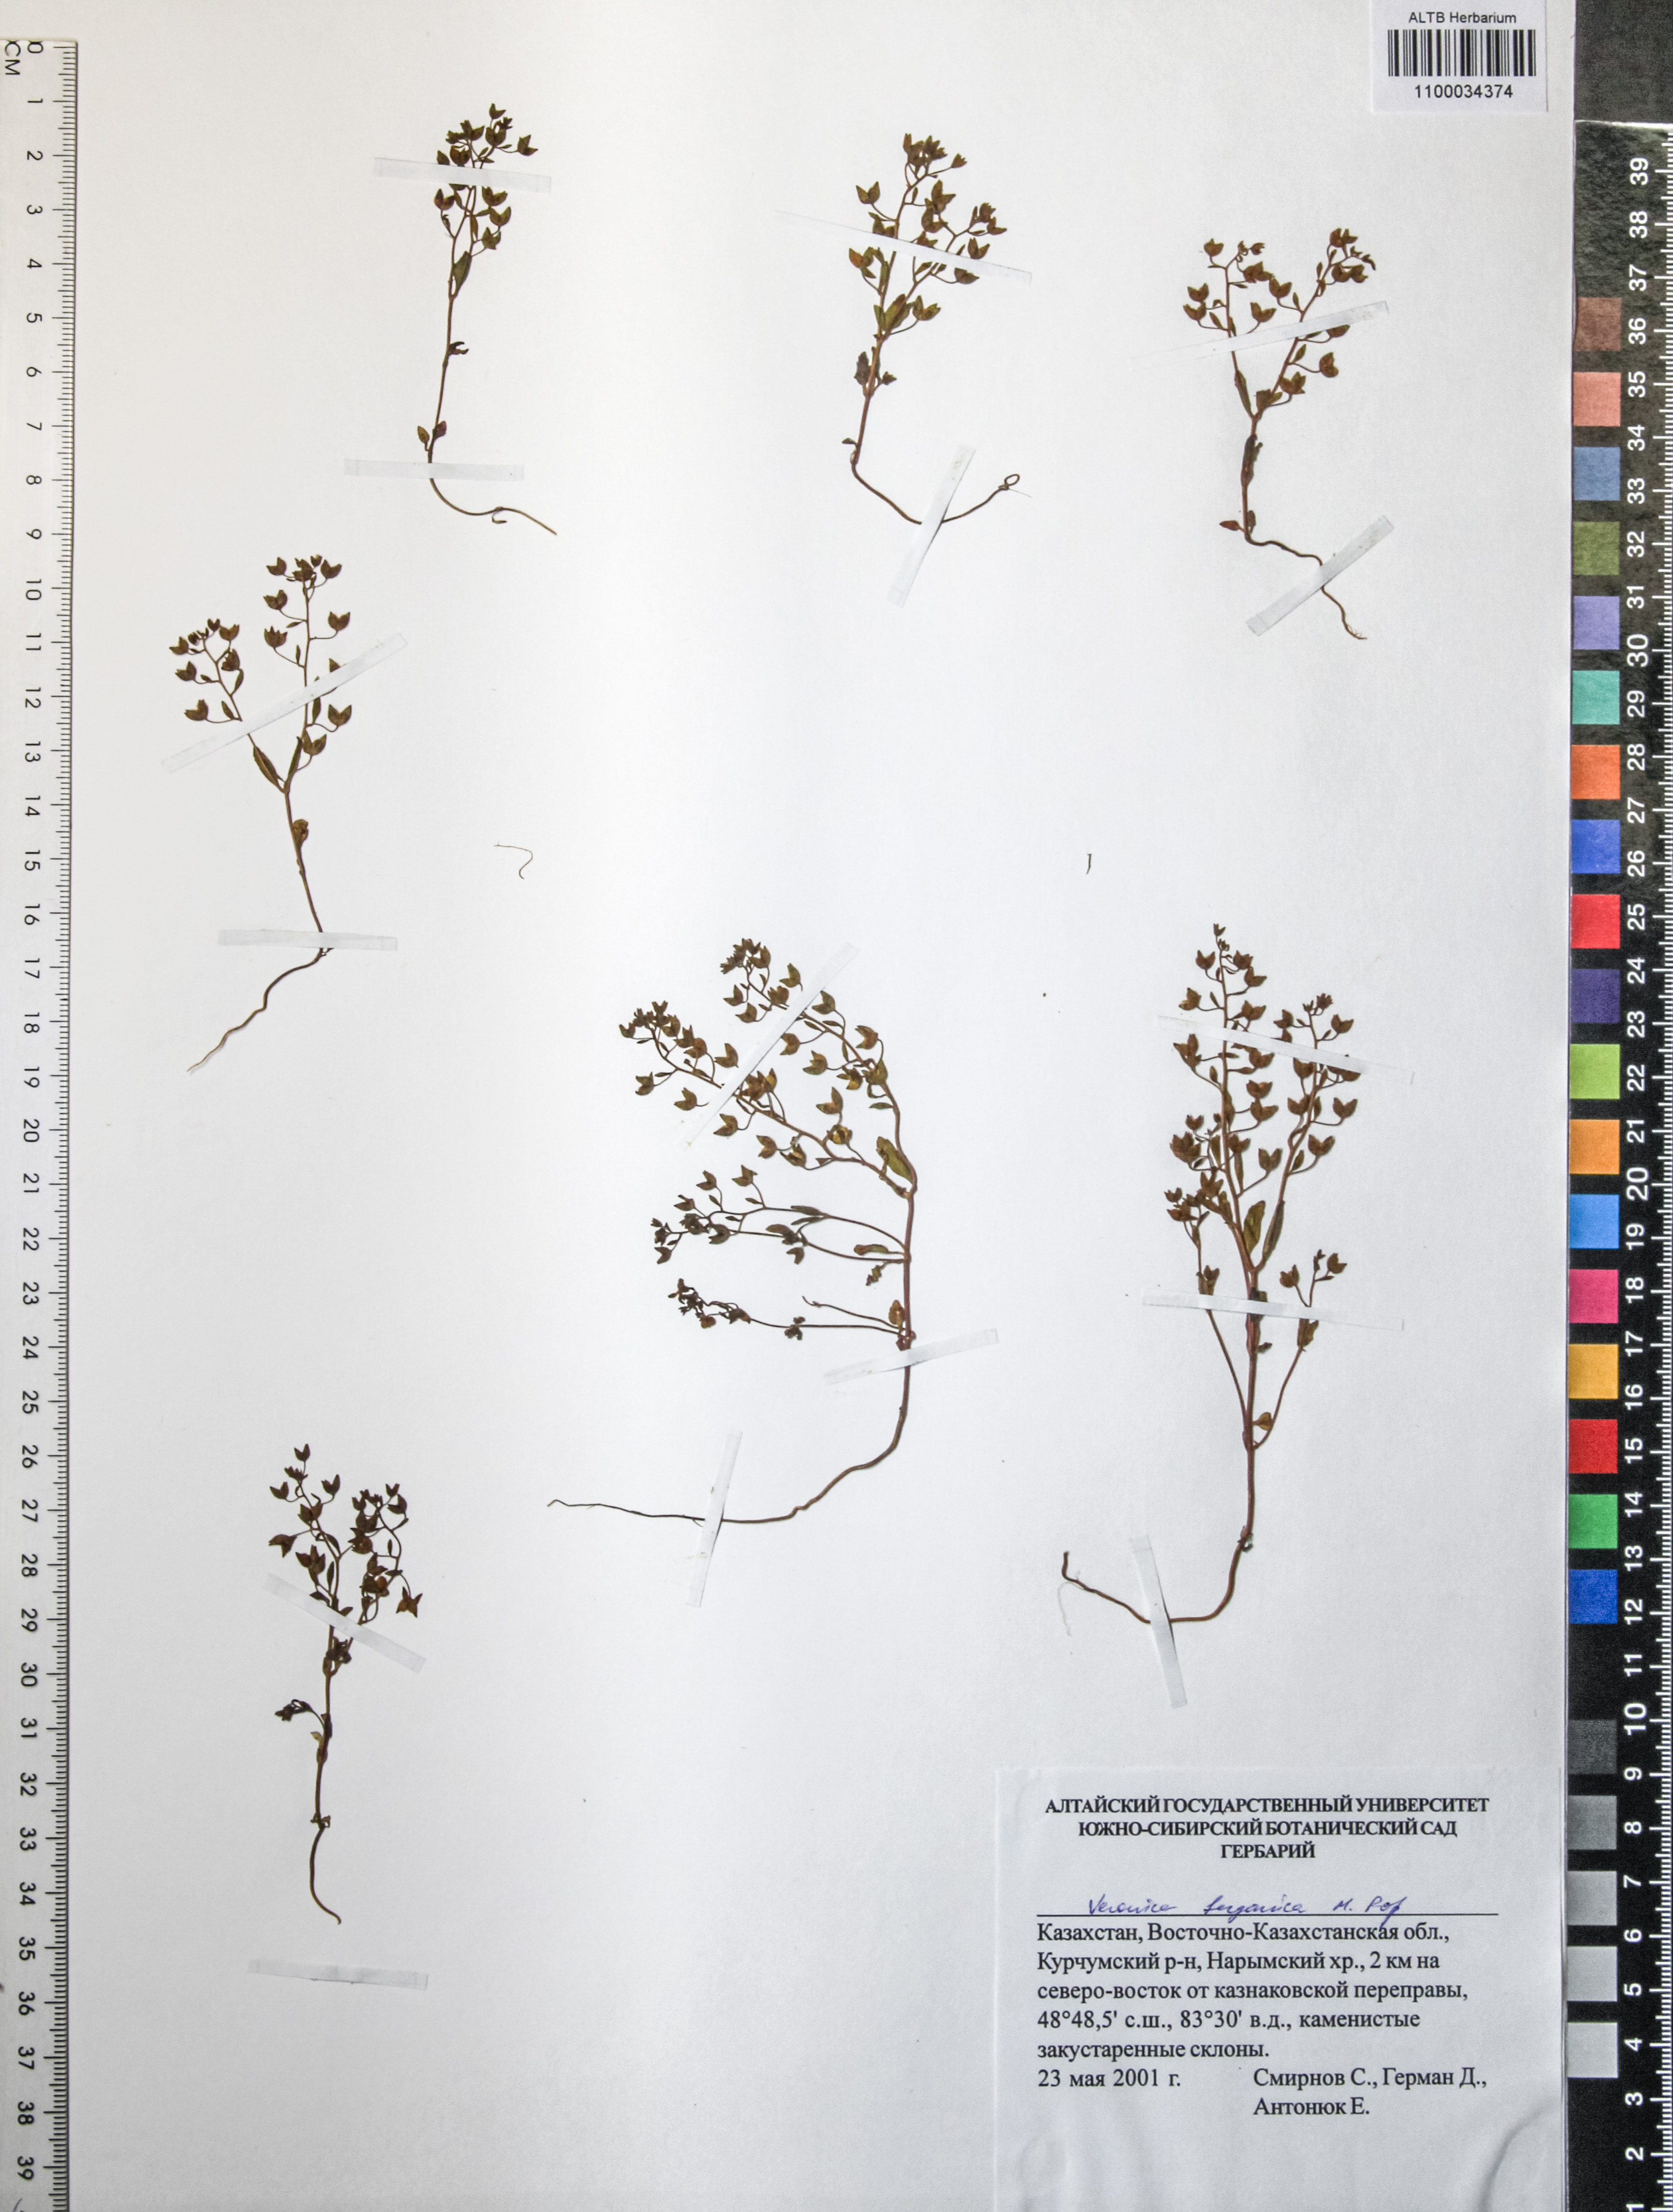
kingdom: Plantae
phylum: Tracheophyta
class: Magnoliopsida
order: Lamiales
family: Plantaginaceae
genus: Veronica
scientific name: Veronica ferganica
